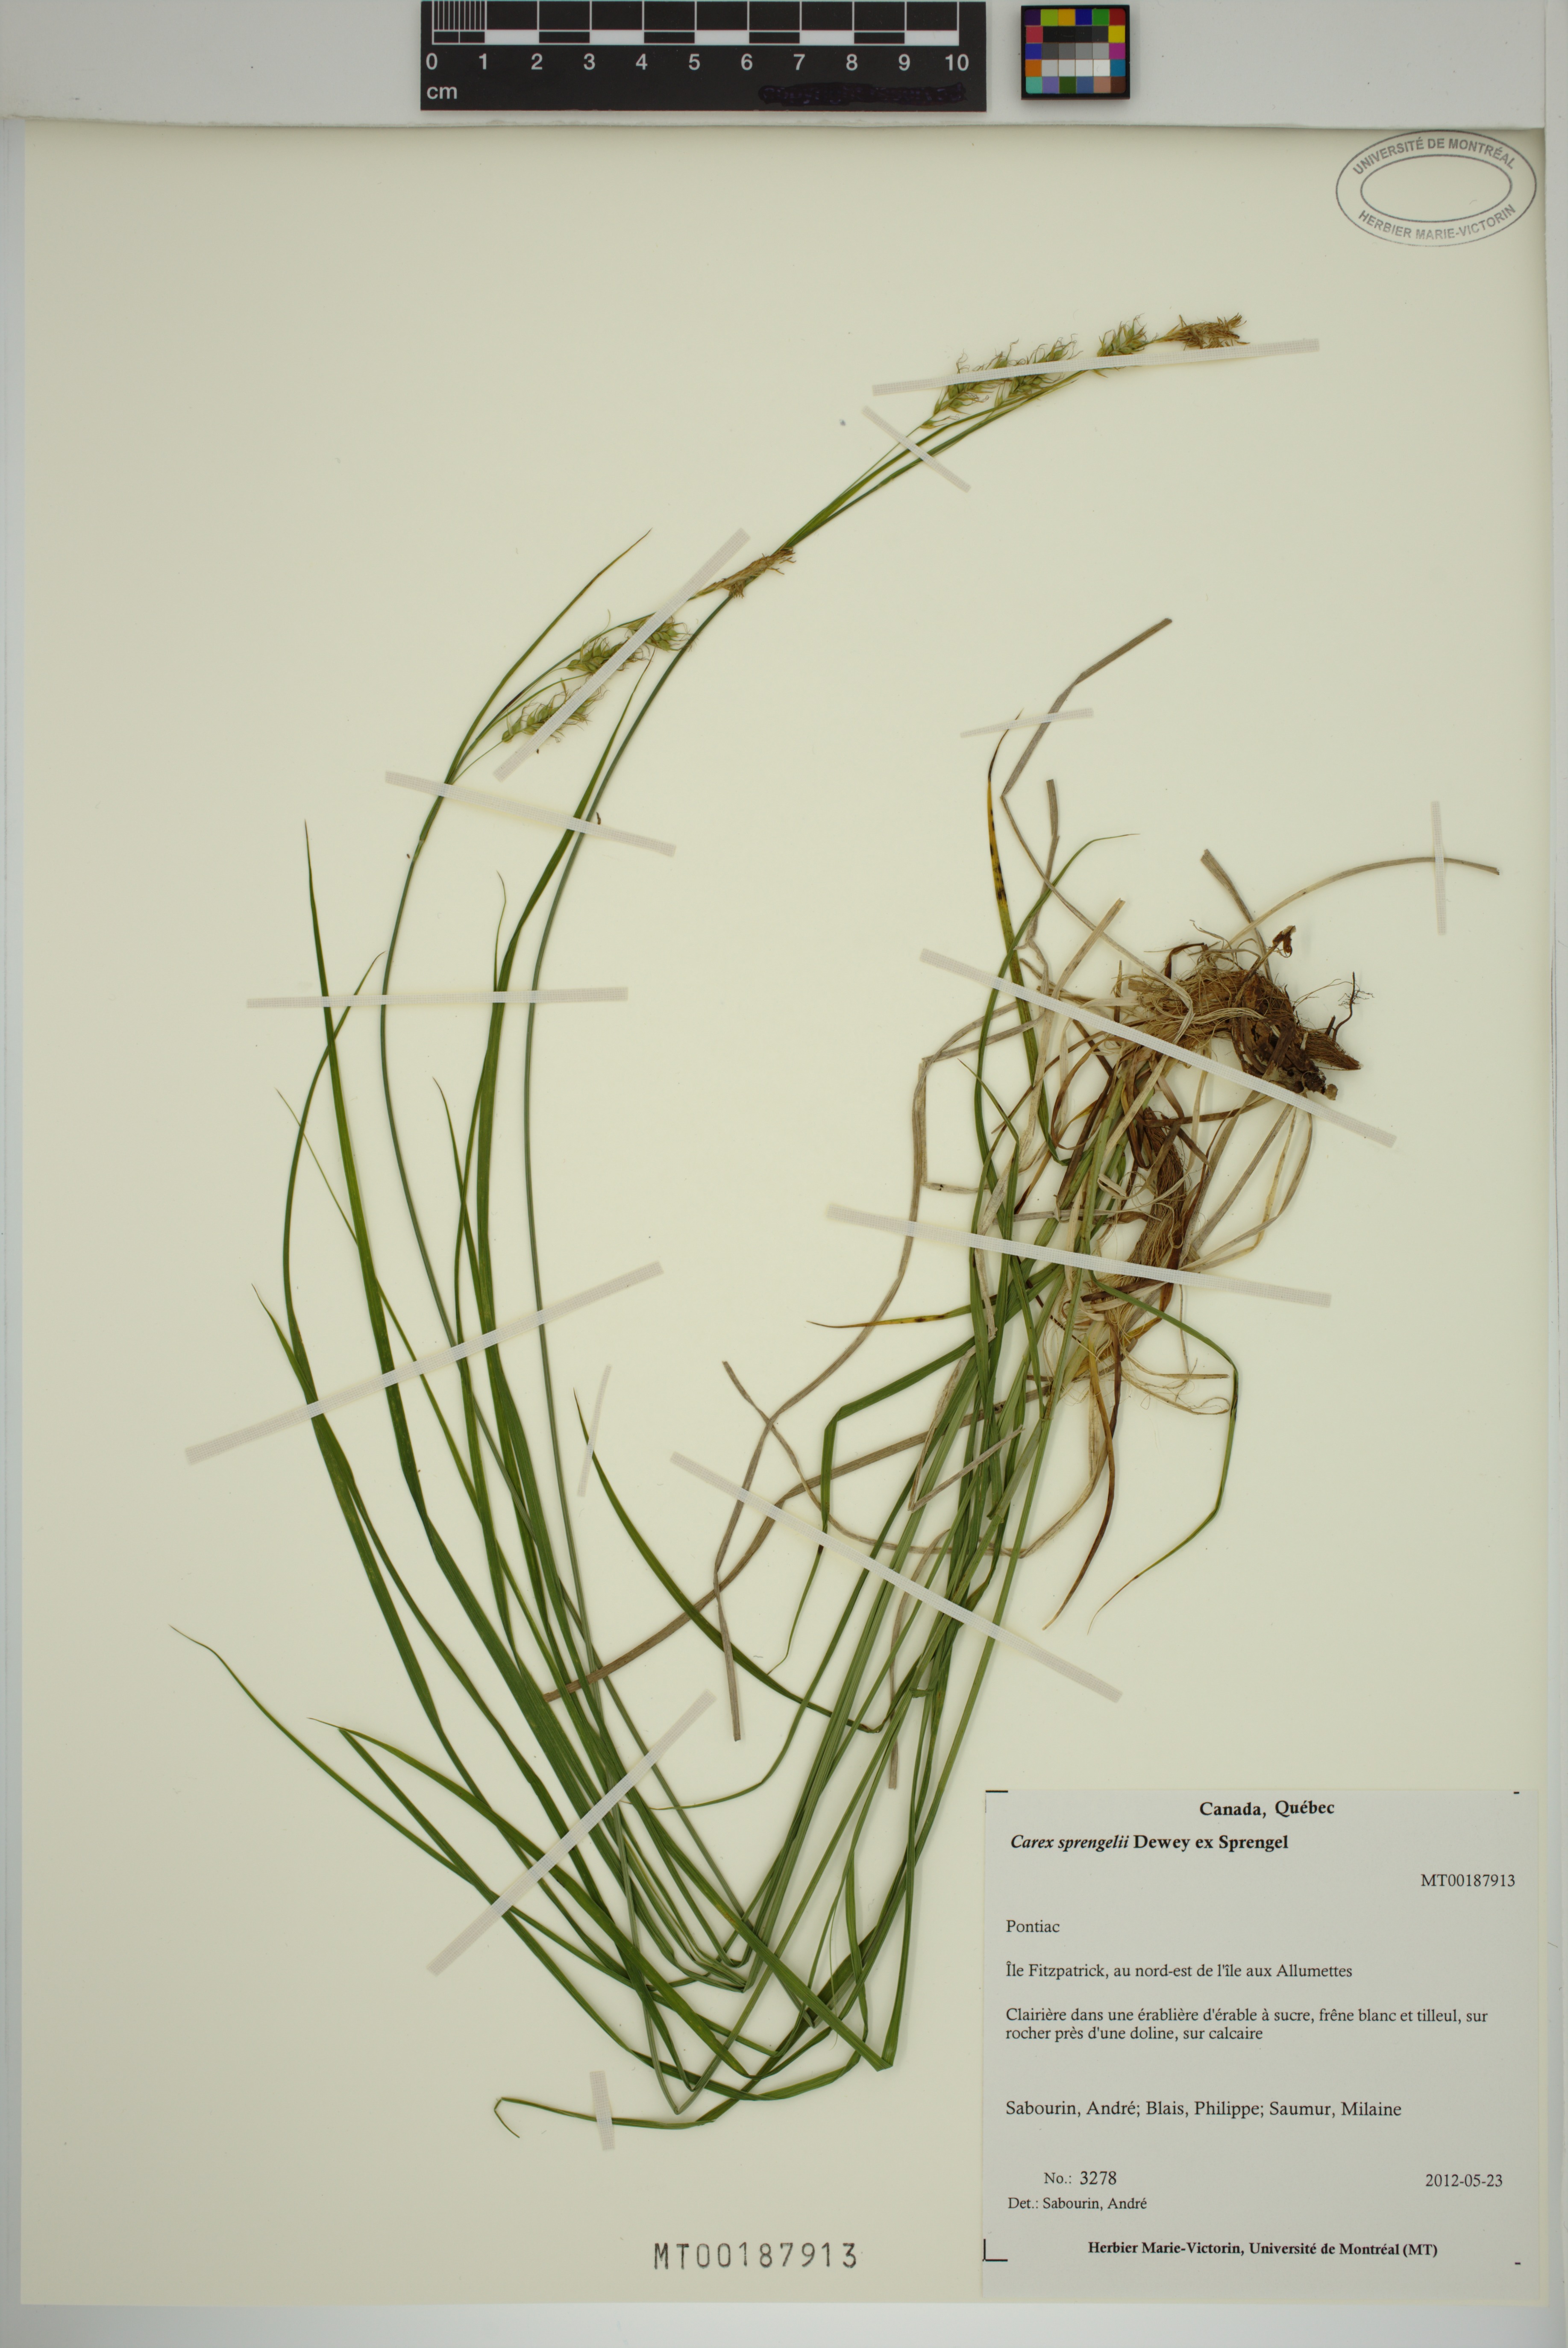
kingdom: Plantae
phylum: Tracheophyta
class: Liliopsida
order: Poales
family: Cyperaceae
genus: Carex
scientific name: Carex sprengelii
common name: Long-beaked sedge
